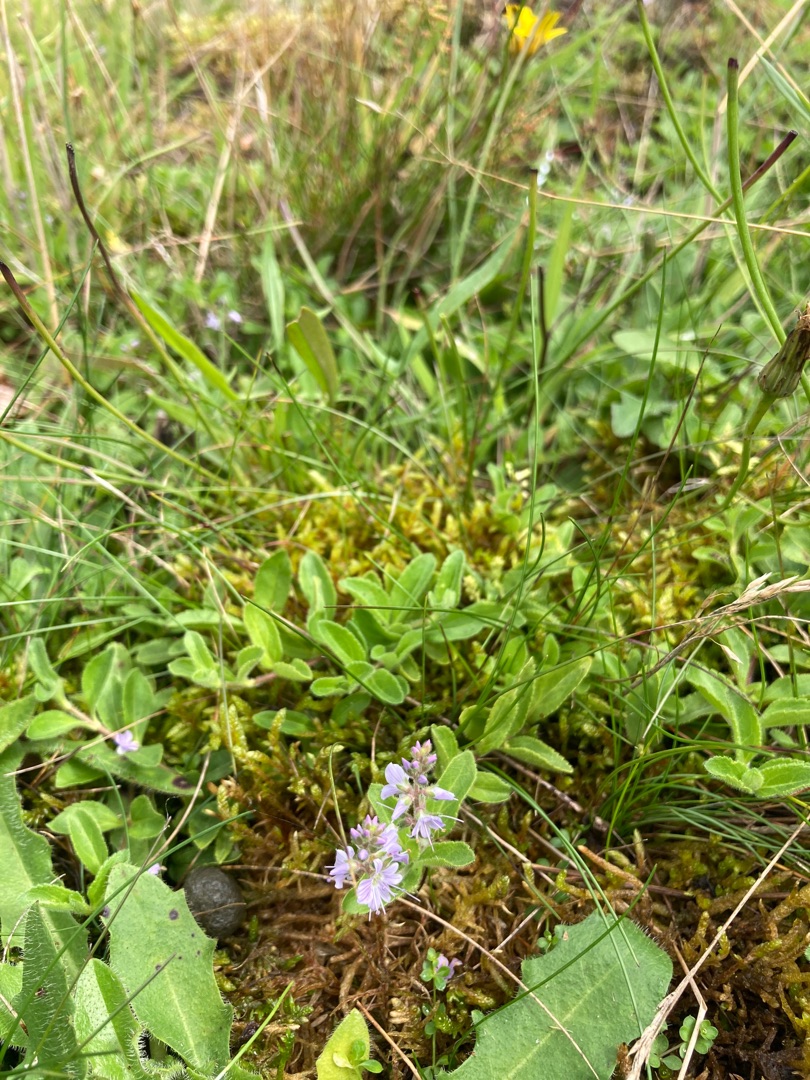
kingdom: Plantae
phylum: Tracheophyta
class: Magnoliopsida
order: Lamiales
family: Plantaginaceae
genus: Veronica
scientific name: Veronica officinalis
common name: Læge-ærenpris
